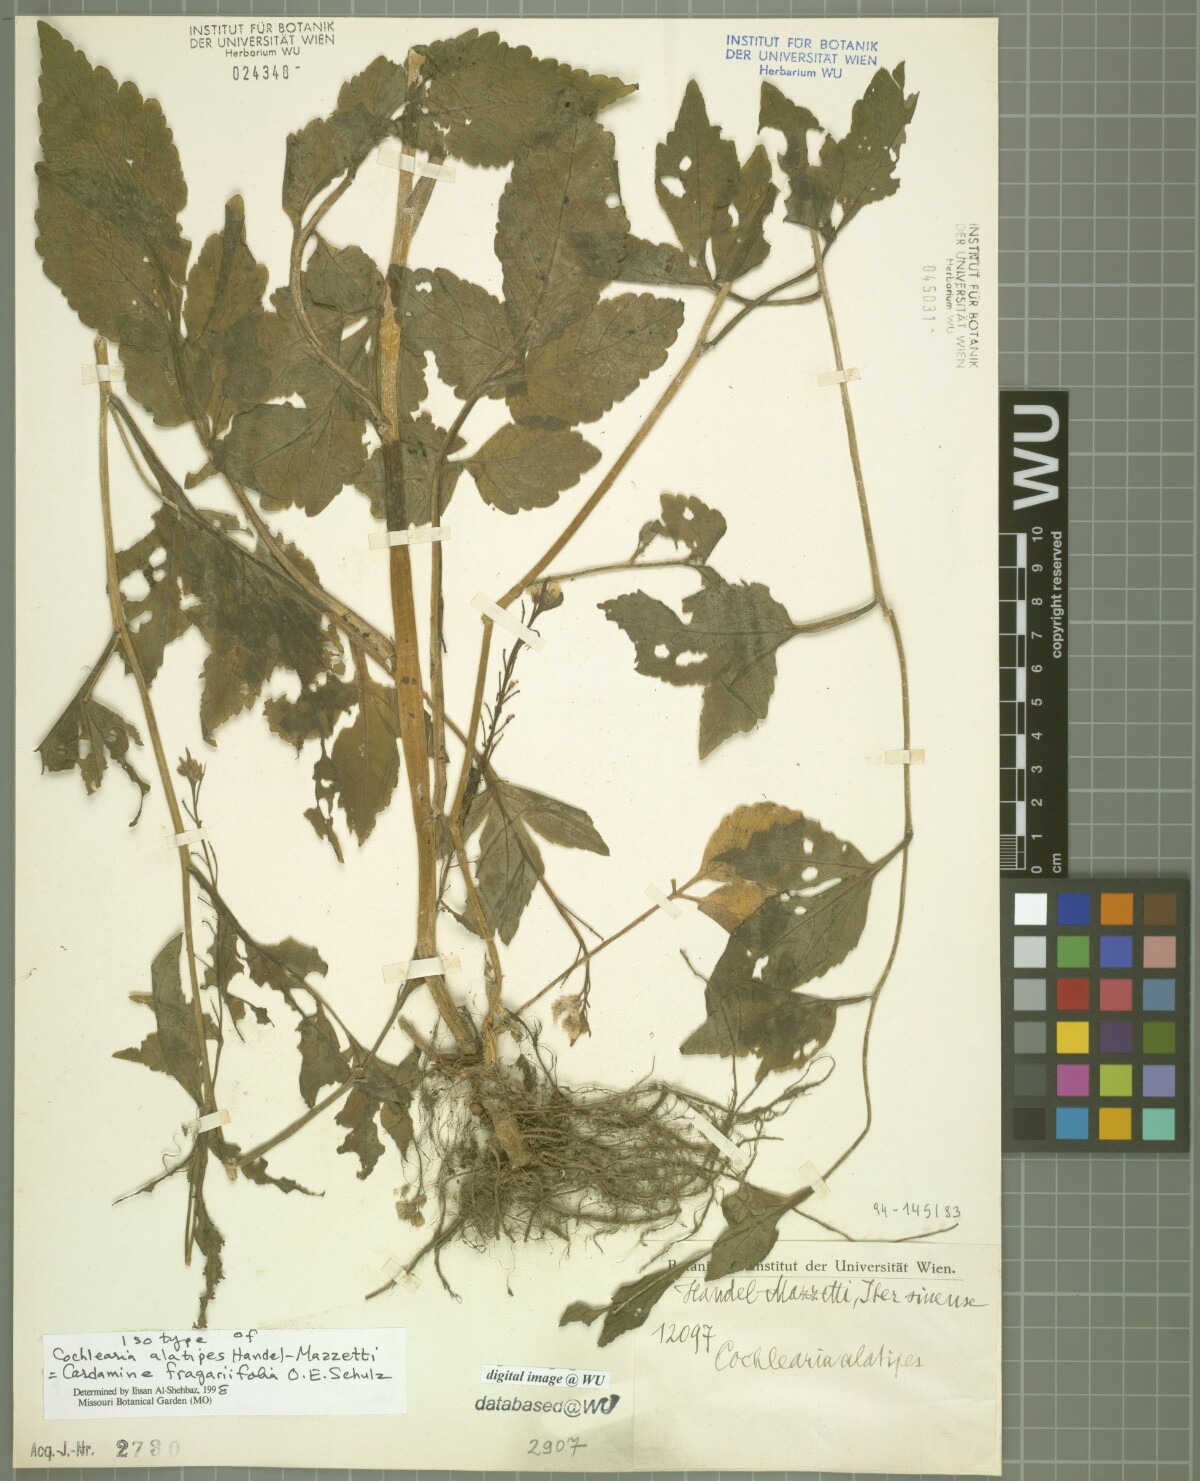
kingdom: Plantae
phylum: Tracheophyta
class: Magnoliopsida
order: Gentianales
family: Rubiaceae
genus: Cynanchica
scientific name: Cynanchica pyrenaica
